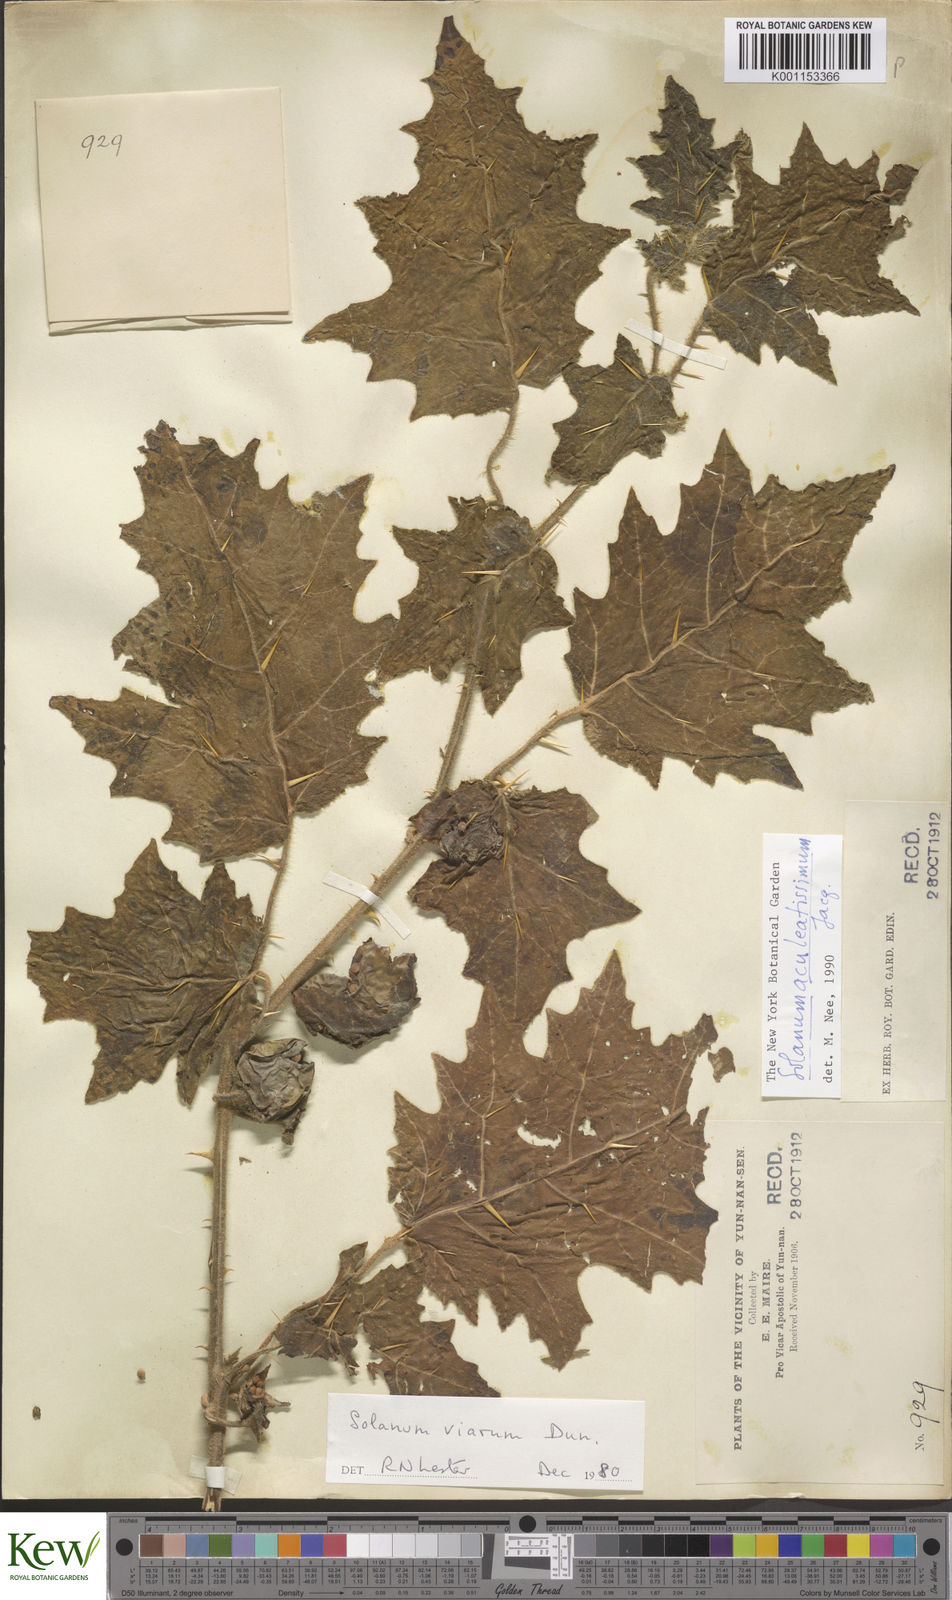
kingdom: Plantae
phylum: Tracheophyta
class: Magnoliopsida
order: Solanales
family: Solanaceae
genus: Solanum
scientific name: Solanum viarum
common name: Tropical soda apple
